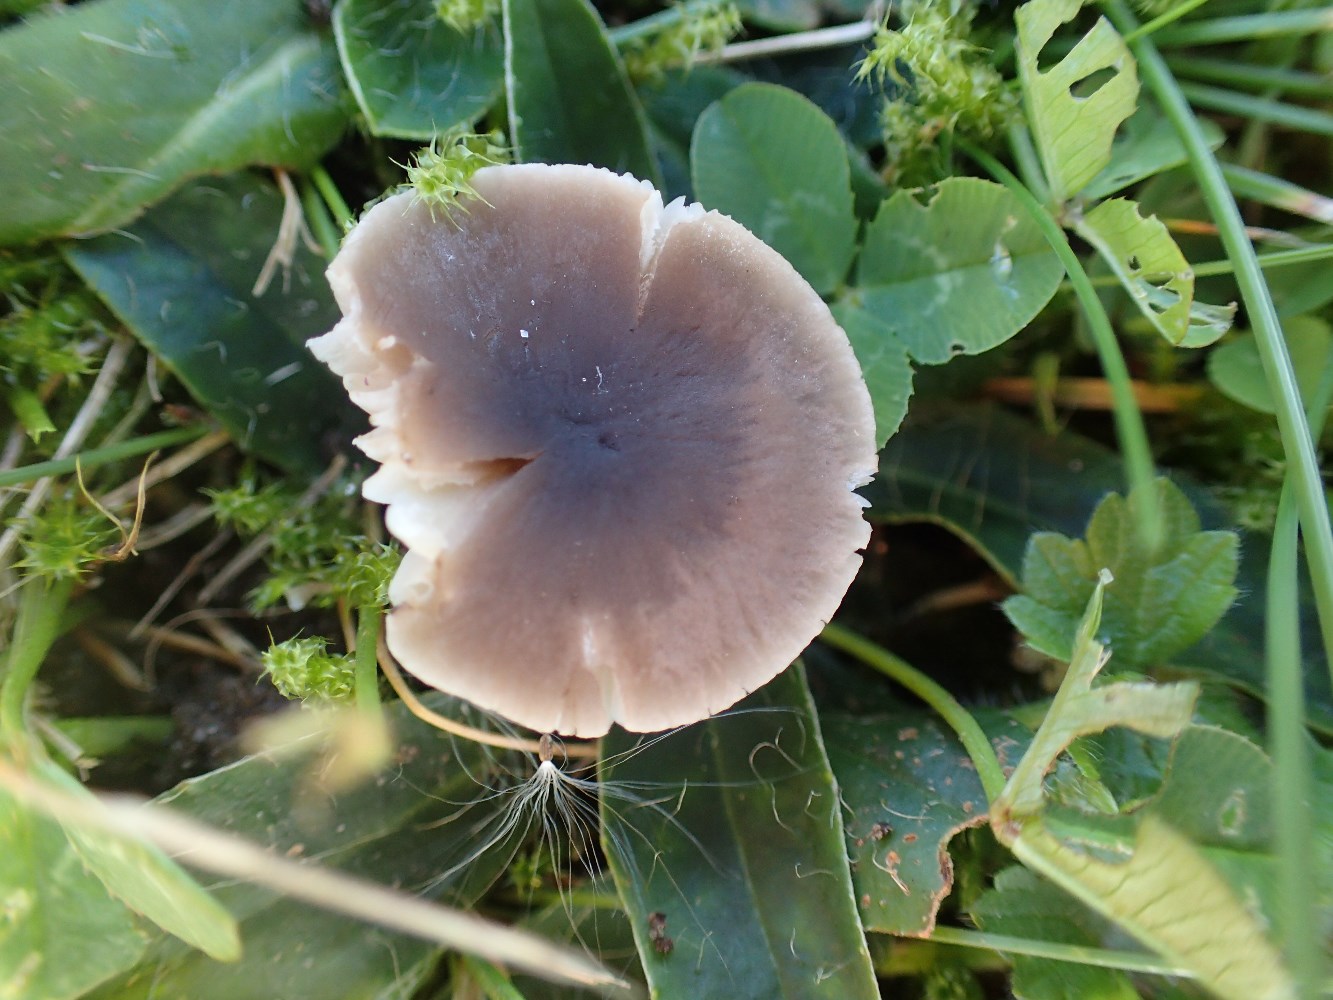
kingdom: Fungi
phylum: Basidiomycota
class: Agaricomycetes
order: Agaricales
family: Tricholomataceae
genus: Dermoloma
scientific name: Dermoloma cuneifolium
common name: eng-nonnehat
